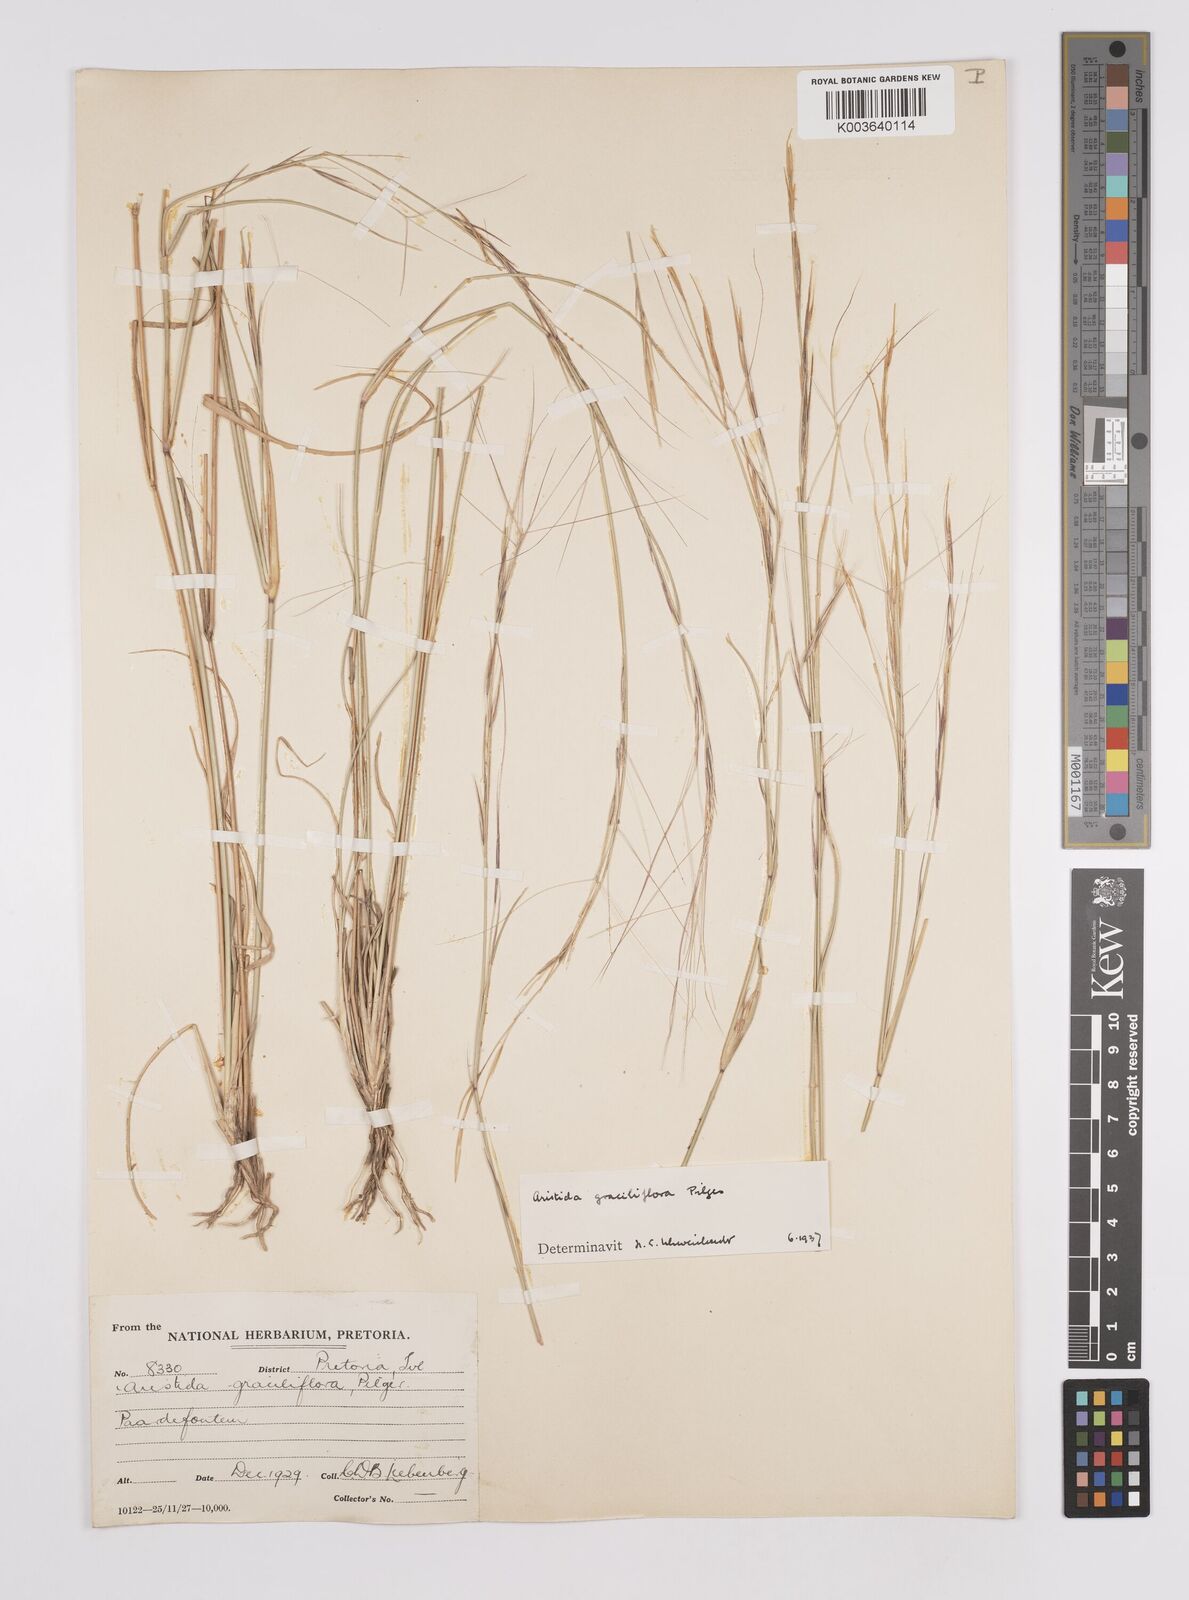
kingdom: Plantae
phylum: Tracheophyta
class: Liliopsida
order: Poales
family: Poaceae
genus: Aristida
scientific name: Aristida stipitata
